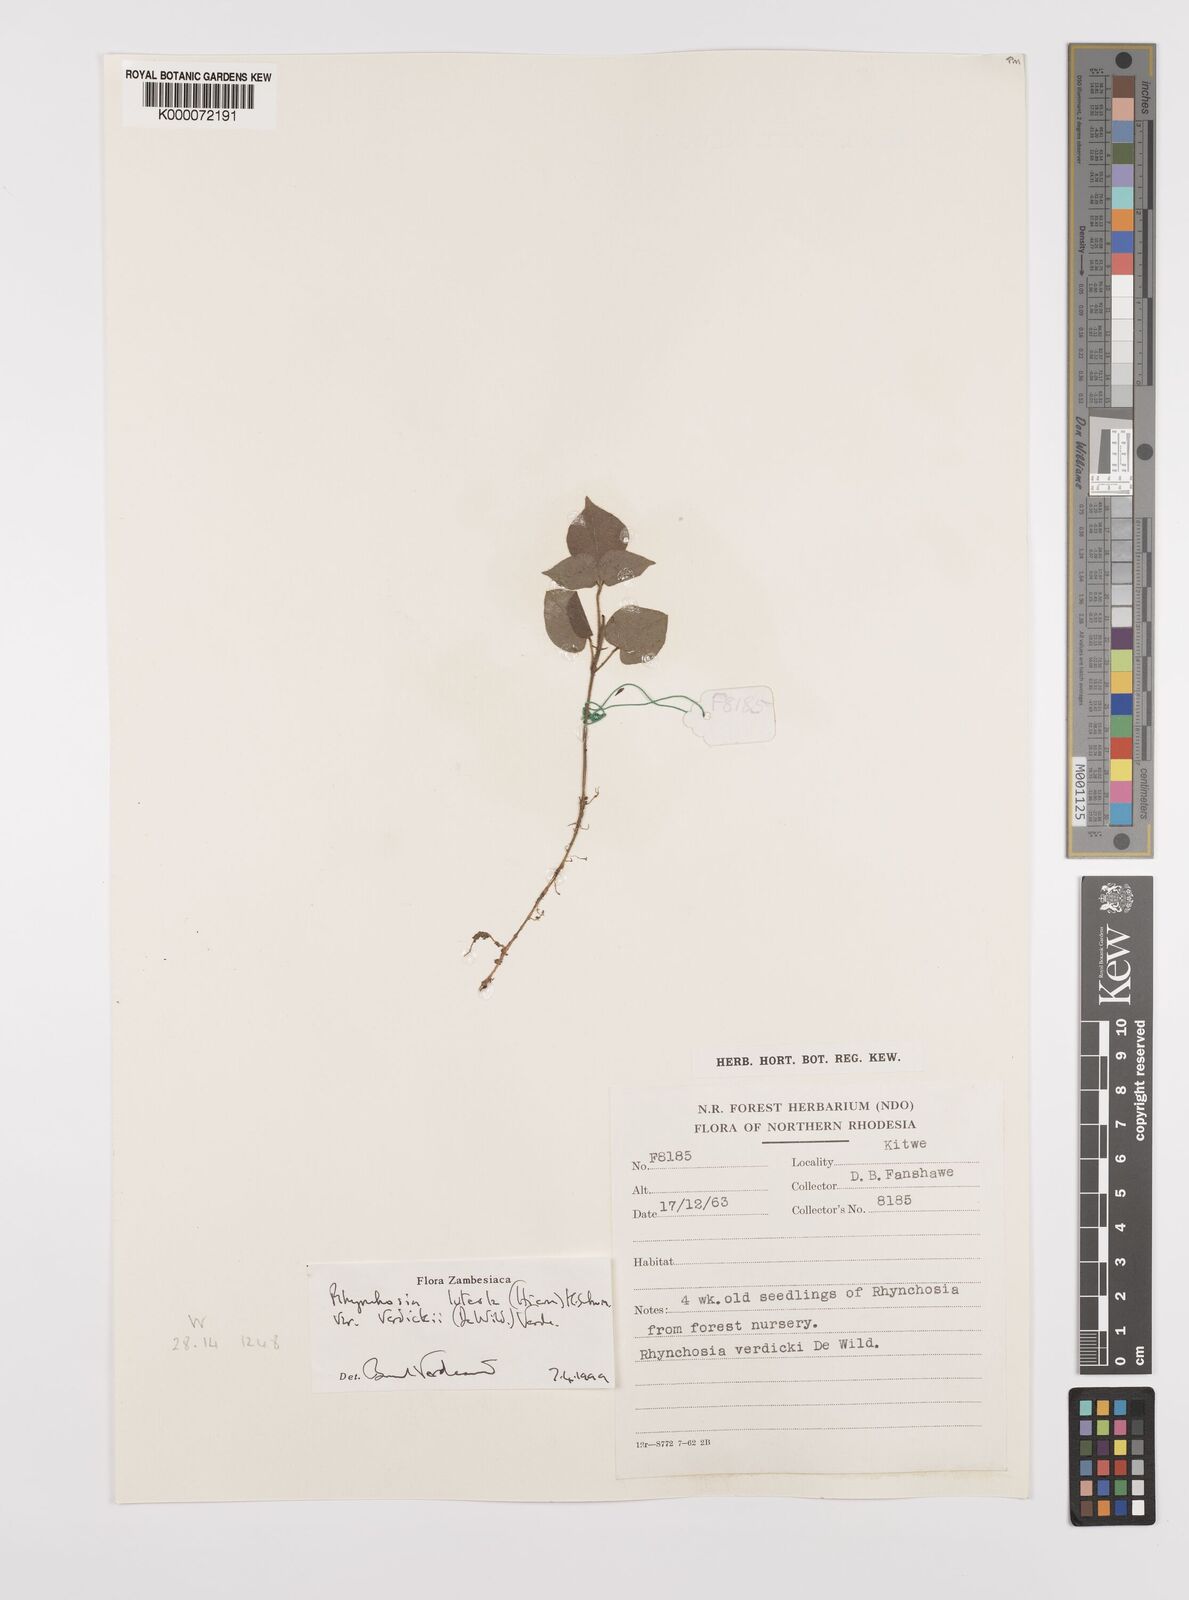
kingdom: Plantae
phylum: Tracheophyta
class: Magnoliopsida
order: Fabales
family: Fabaceae
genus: Rhynchosia
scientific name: Rhynchosia luteola
